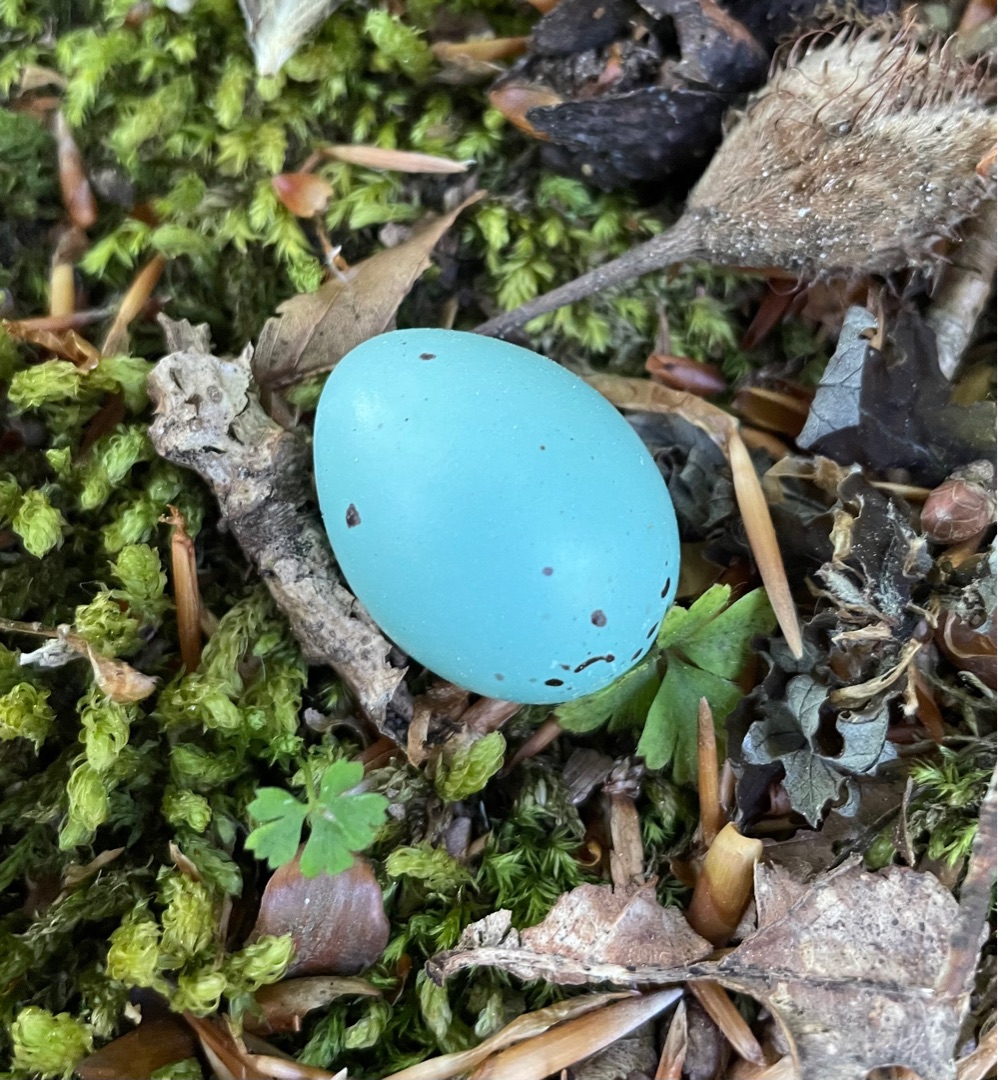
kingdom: Animalia
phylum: Chordata
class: Aves
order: Passeriformes
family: Turdidae
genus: Turdus
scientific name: Turdus philomelos
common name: Sangdrossel
